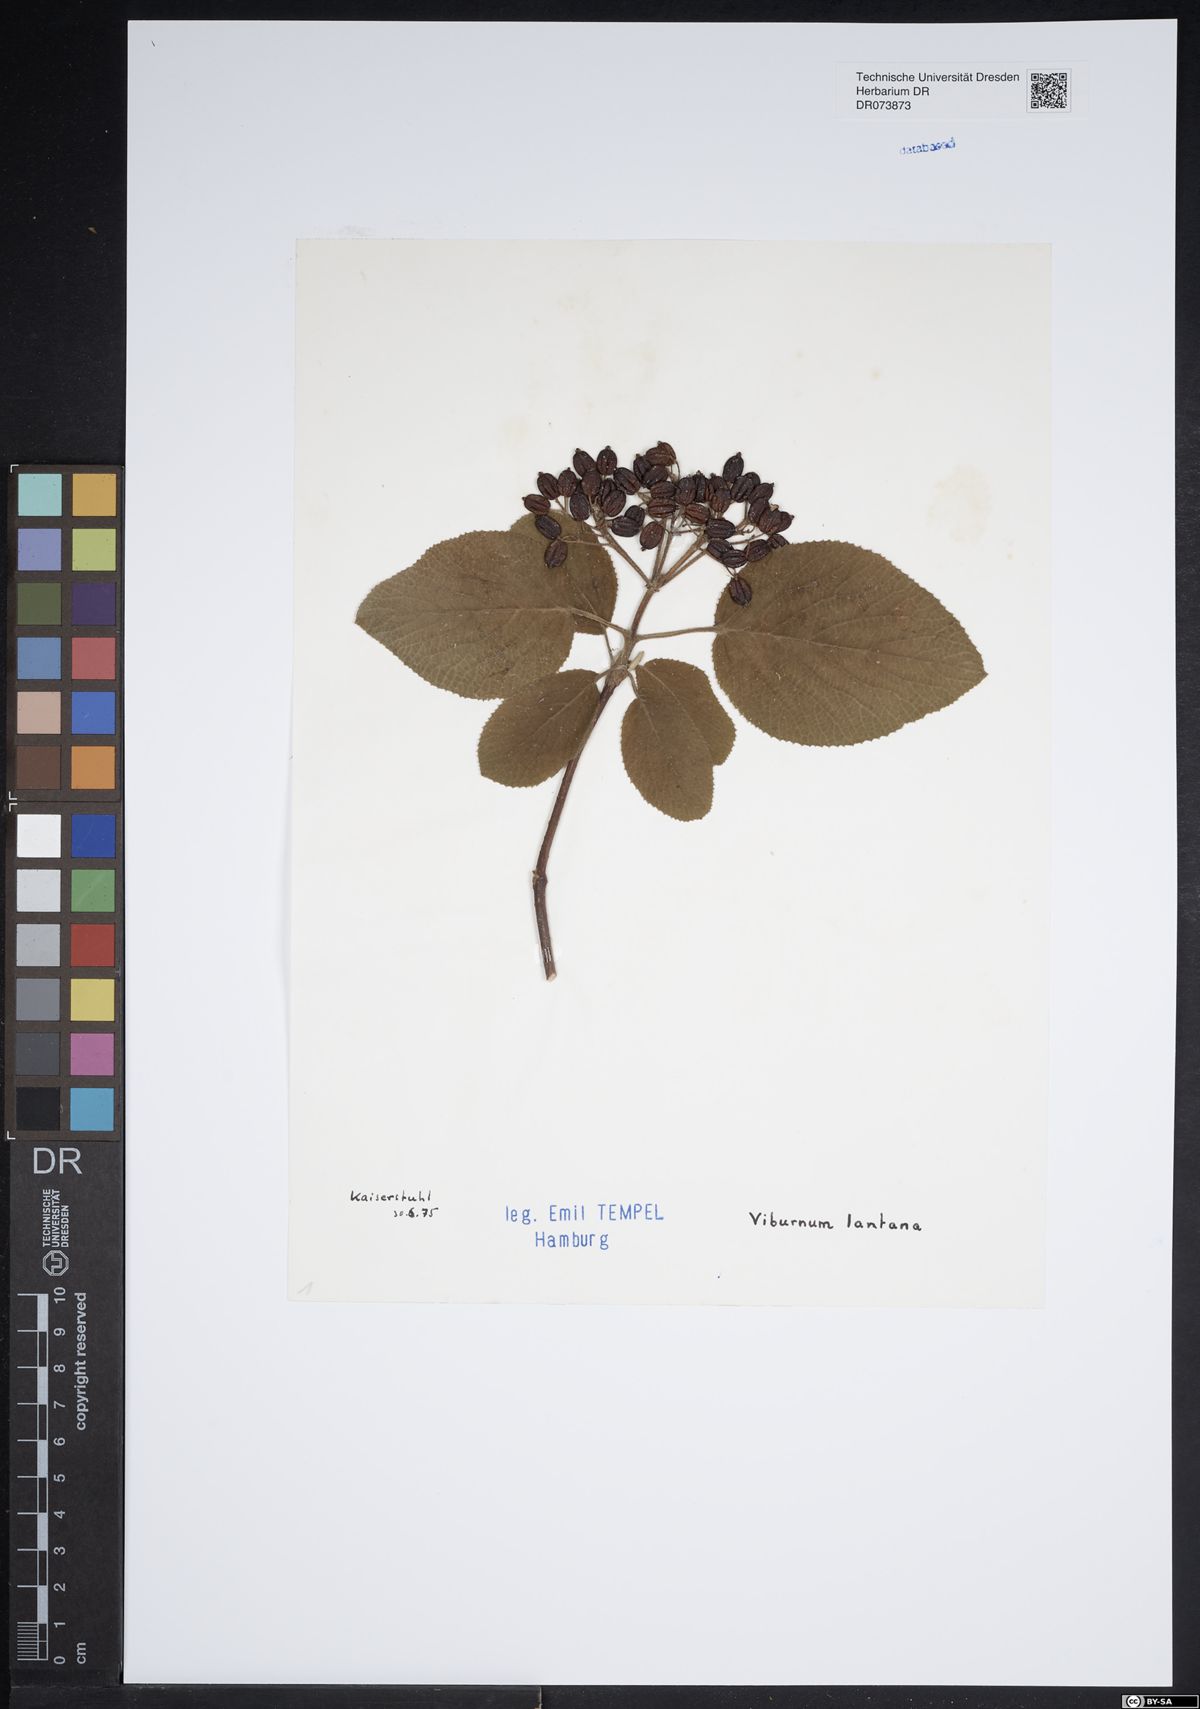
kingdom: Plantae
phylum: Tracheophyta
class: Magnoliopsida
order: Dipsacales
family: Viburnaceae
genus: Viburnum
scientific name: Viburnum lantana
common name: Wayfaring tree
